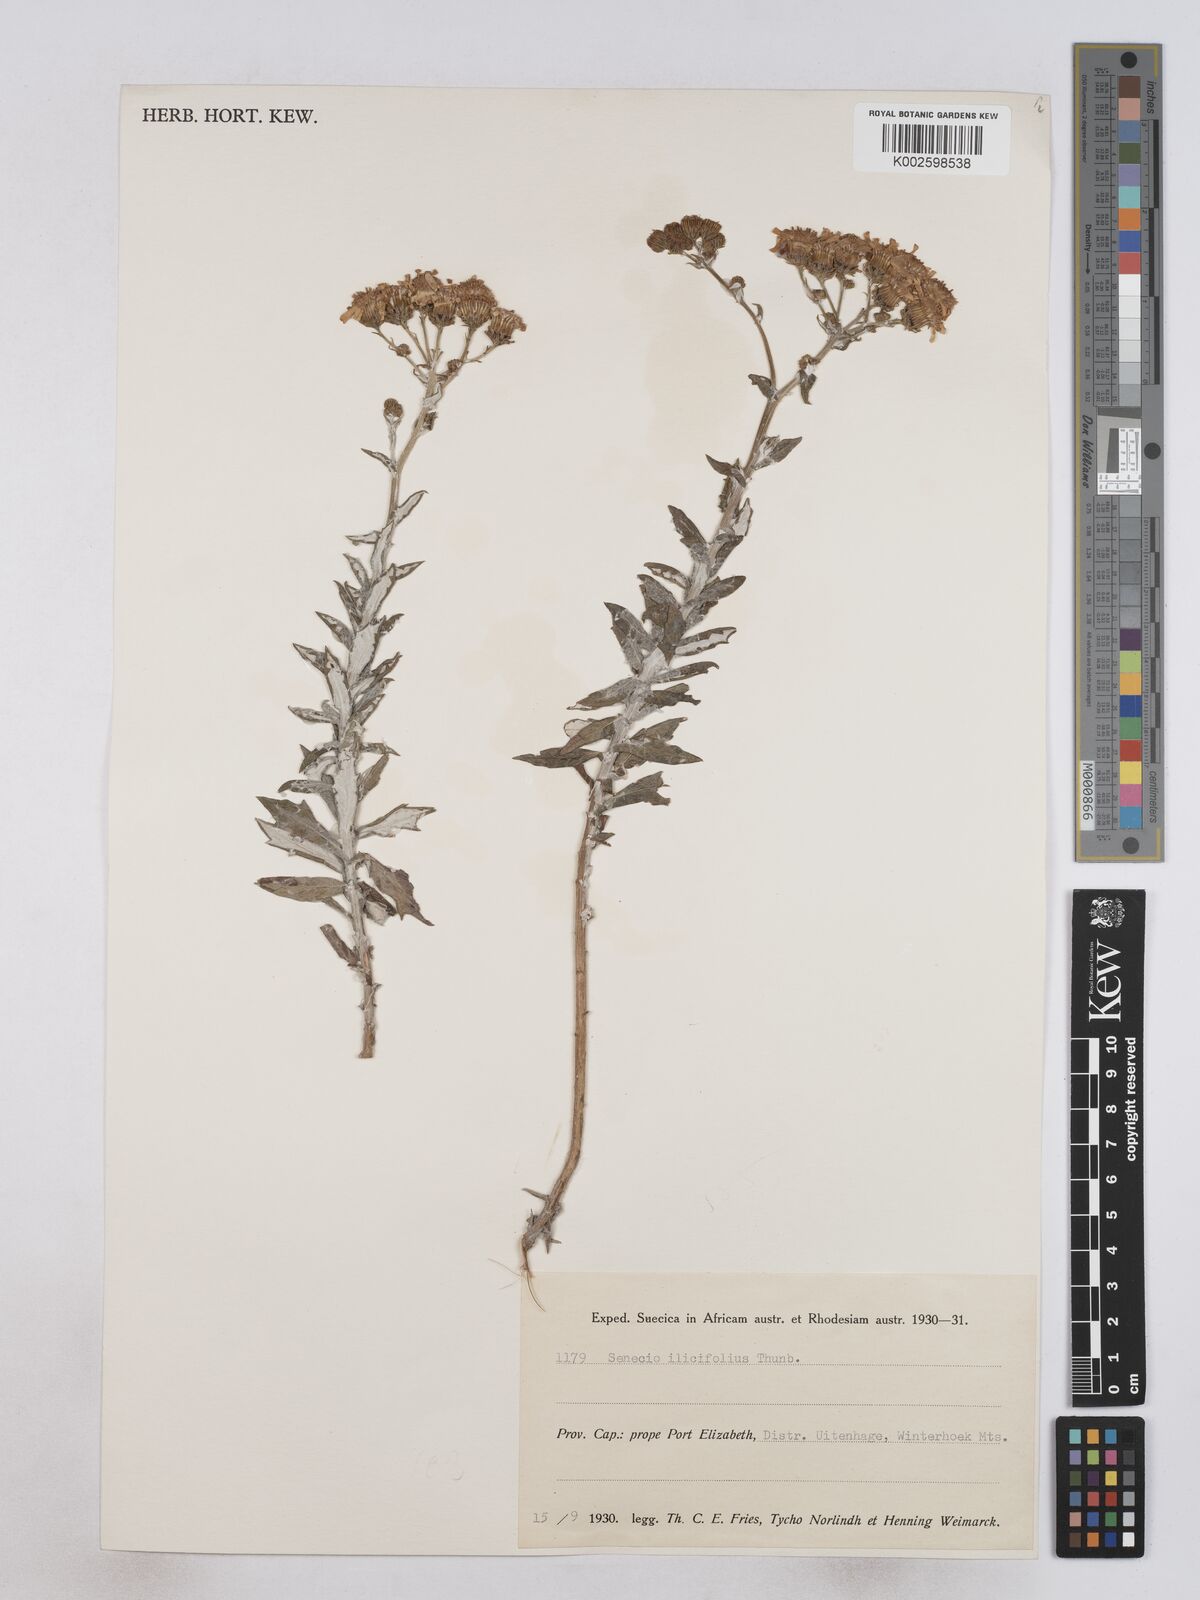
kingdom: Plantae
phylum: Tracheophyta
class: Magnoliopsida
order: Asterales
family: Asteraceae
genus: Senecio
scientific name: Senecio ilicifolius
